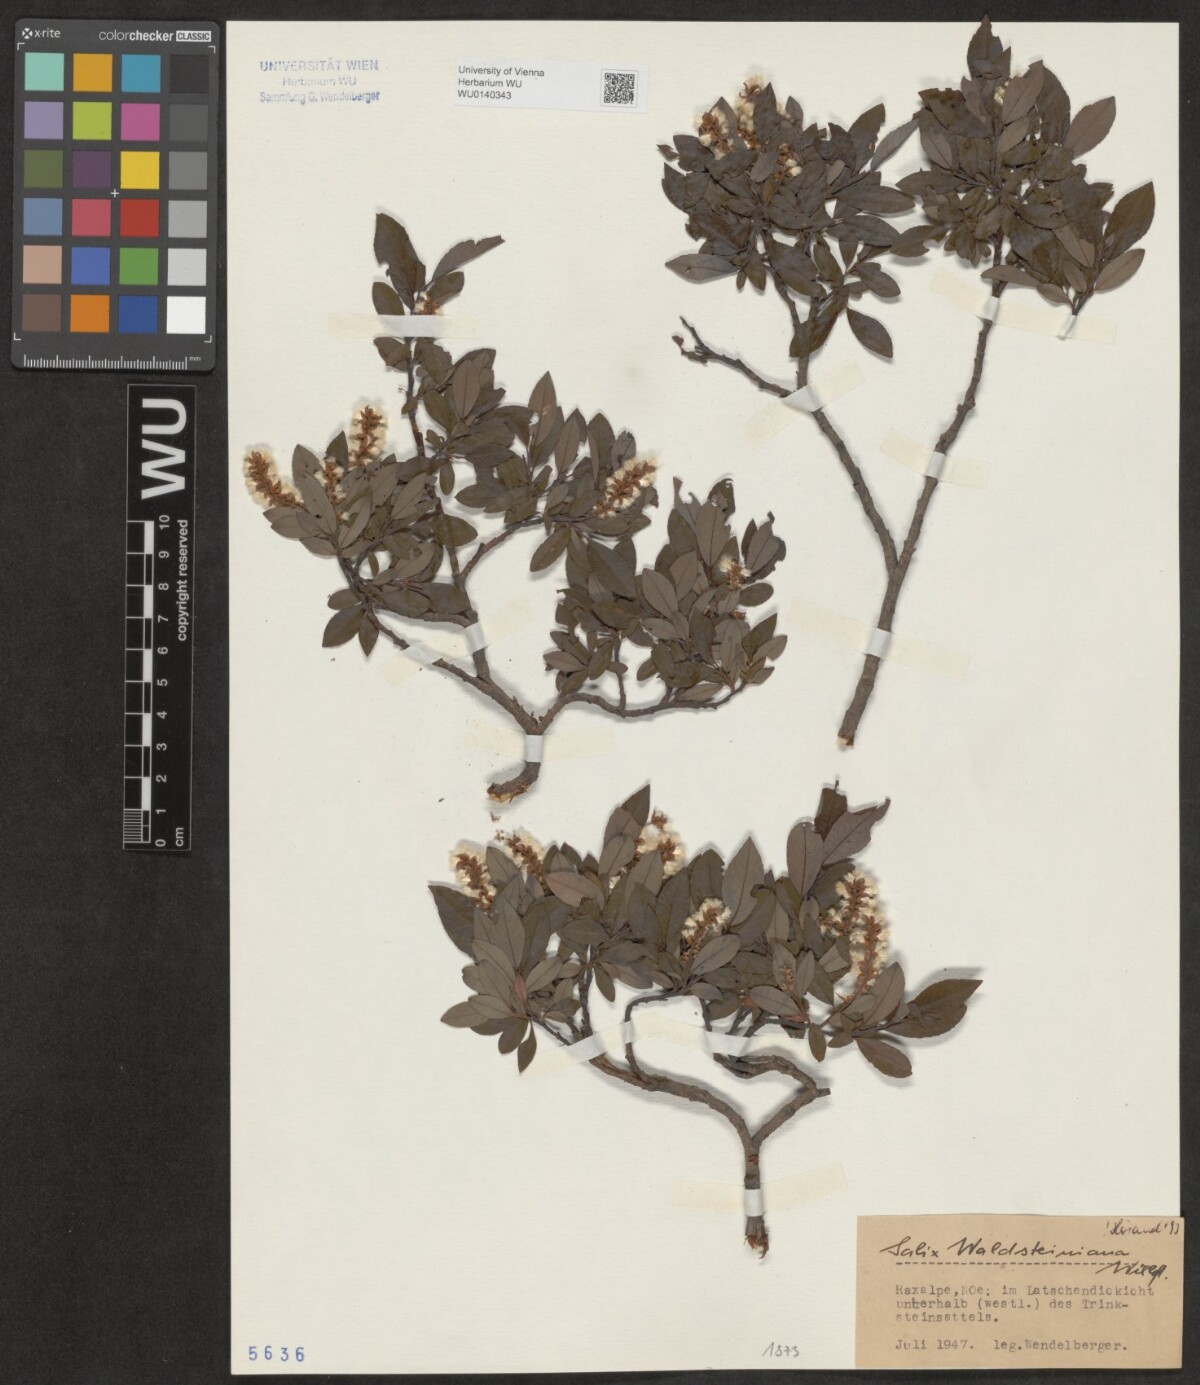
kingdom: Plantae
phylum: Tracheophyta
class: Magnoliopsida
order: Malpighiales
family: Salicaceae
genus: Salix
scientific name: Salix waldsteiniana
